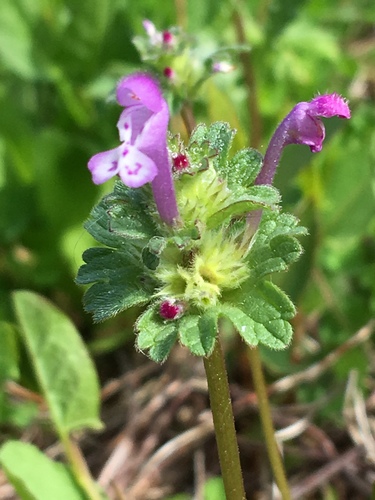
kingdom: Plantae
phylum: Tracheophyta
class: Magnoliopsida
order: Lamiales
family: Lamiaceae
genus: Lamium
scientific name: Lamium amplexicaule
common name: Henbit dead-nettle
